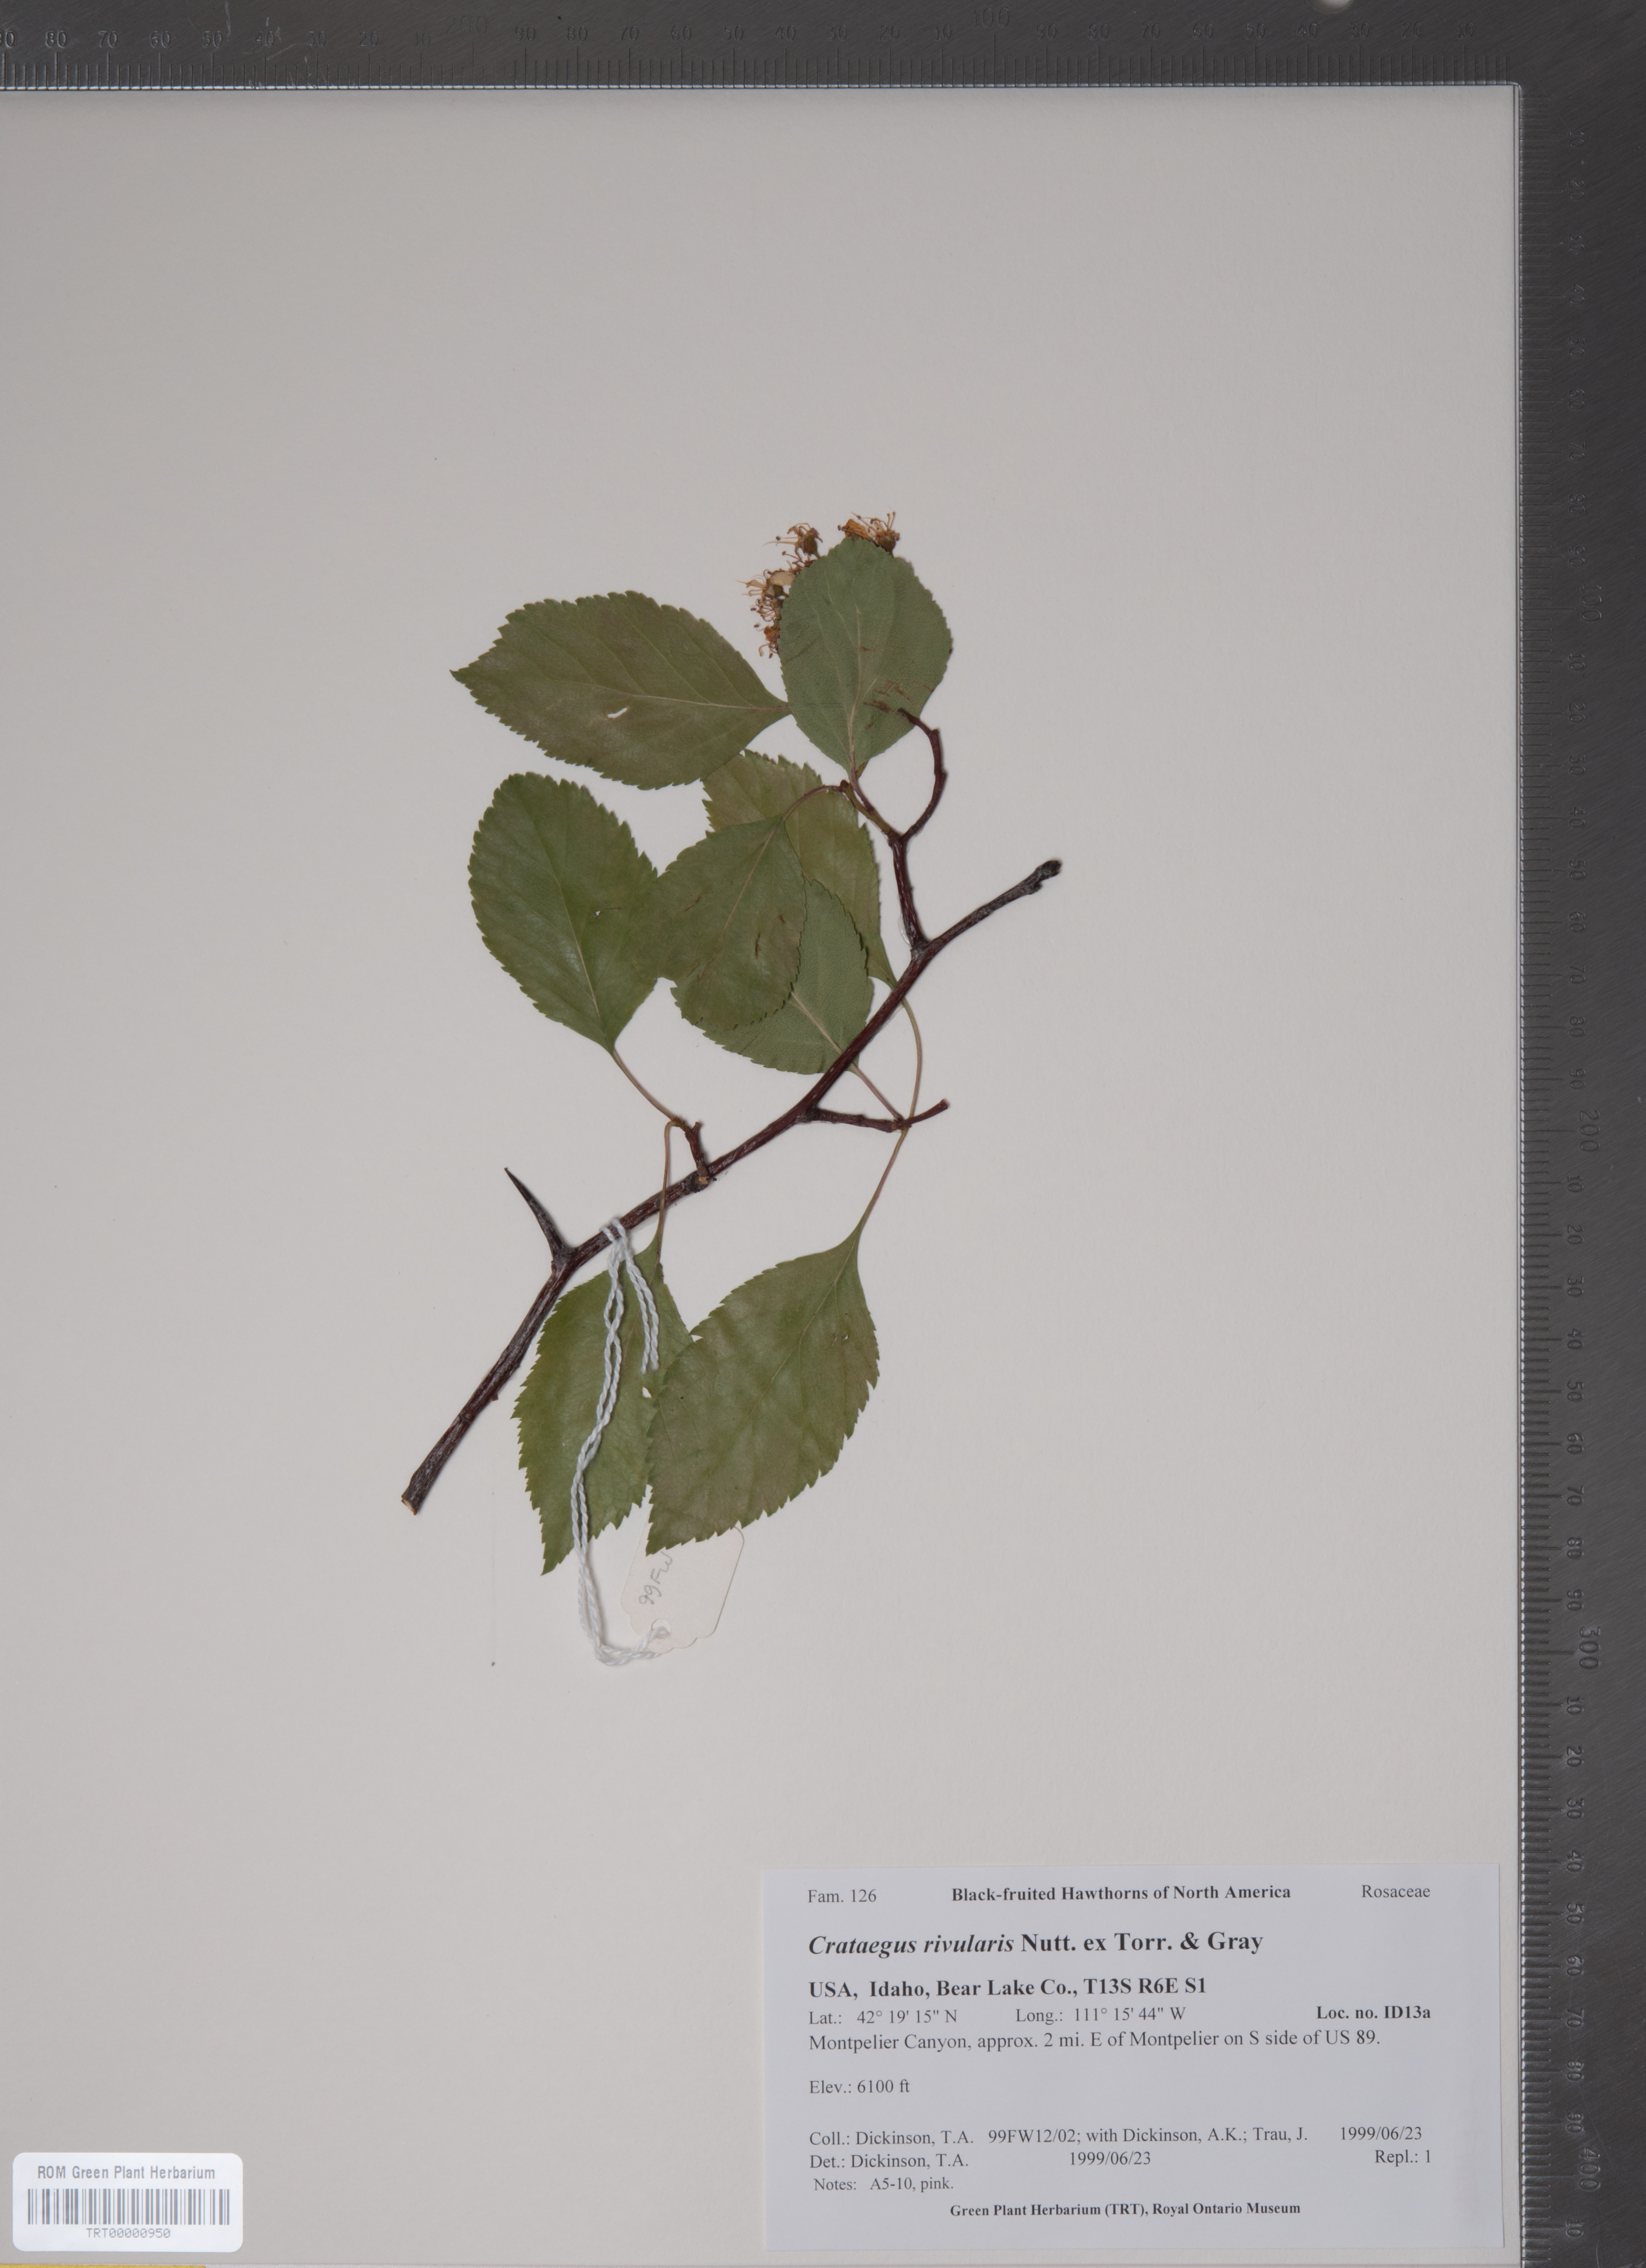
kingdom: Plantae
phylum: Tracheophyta
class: Magnoliopsida
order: Rosales
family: Rosaceae
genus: Crataegus
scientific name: Crataegus rivularis
